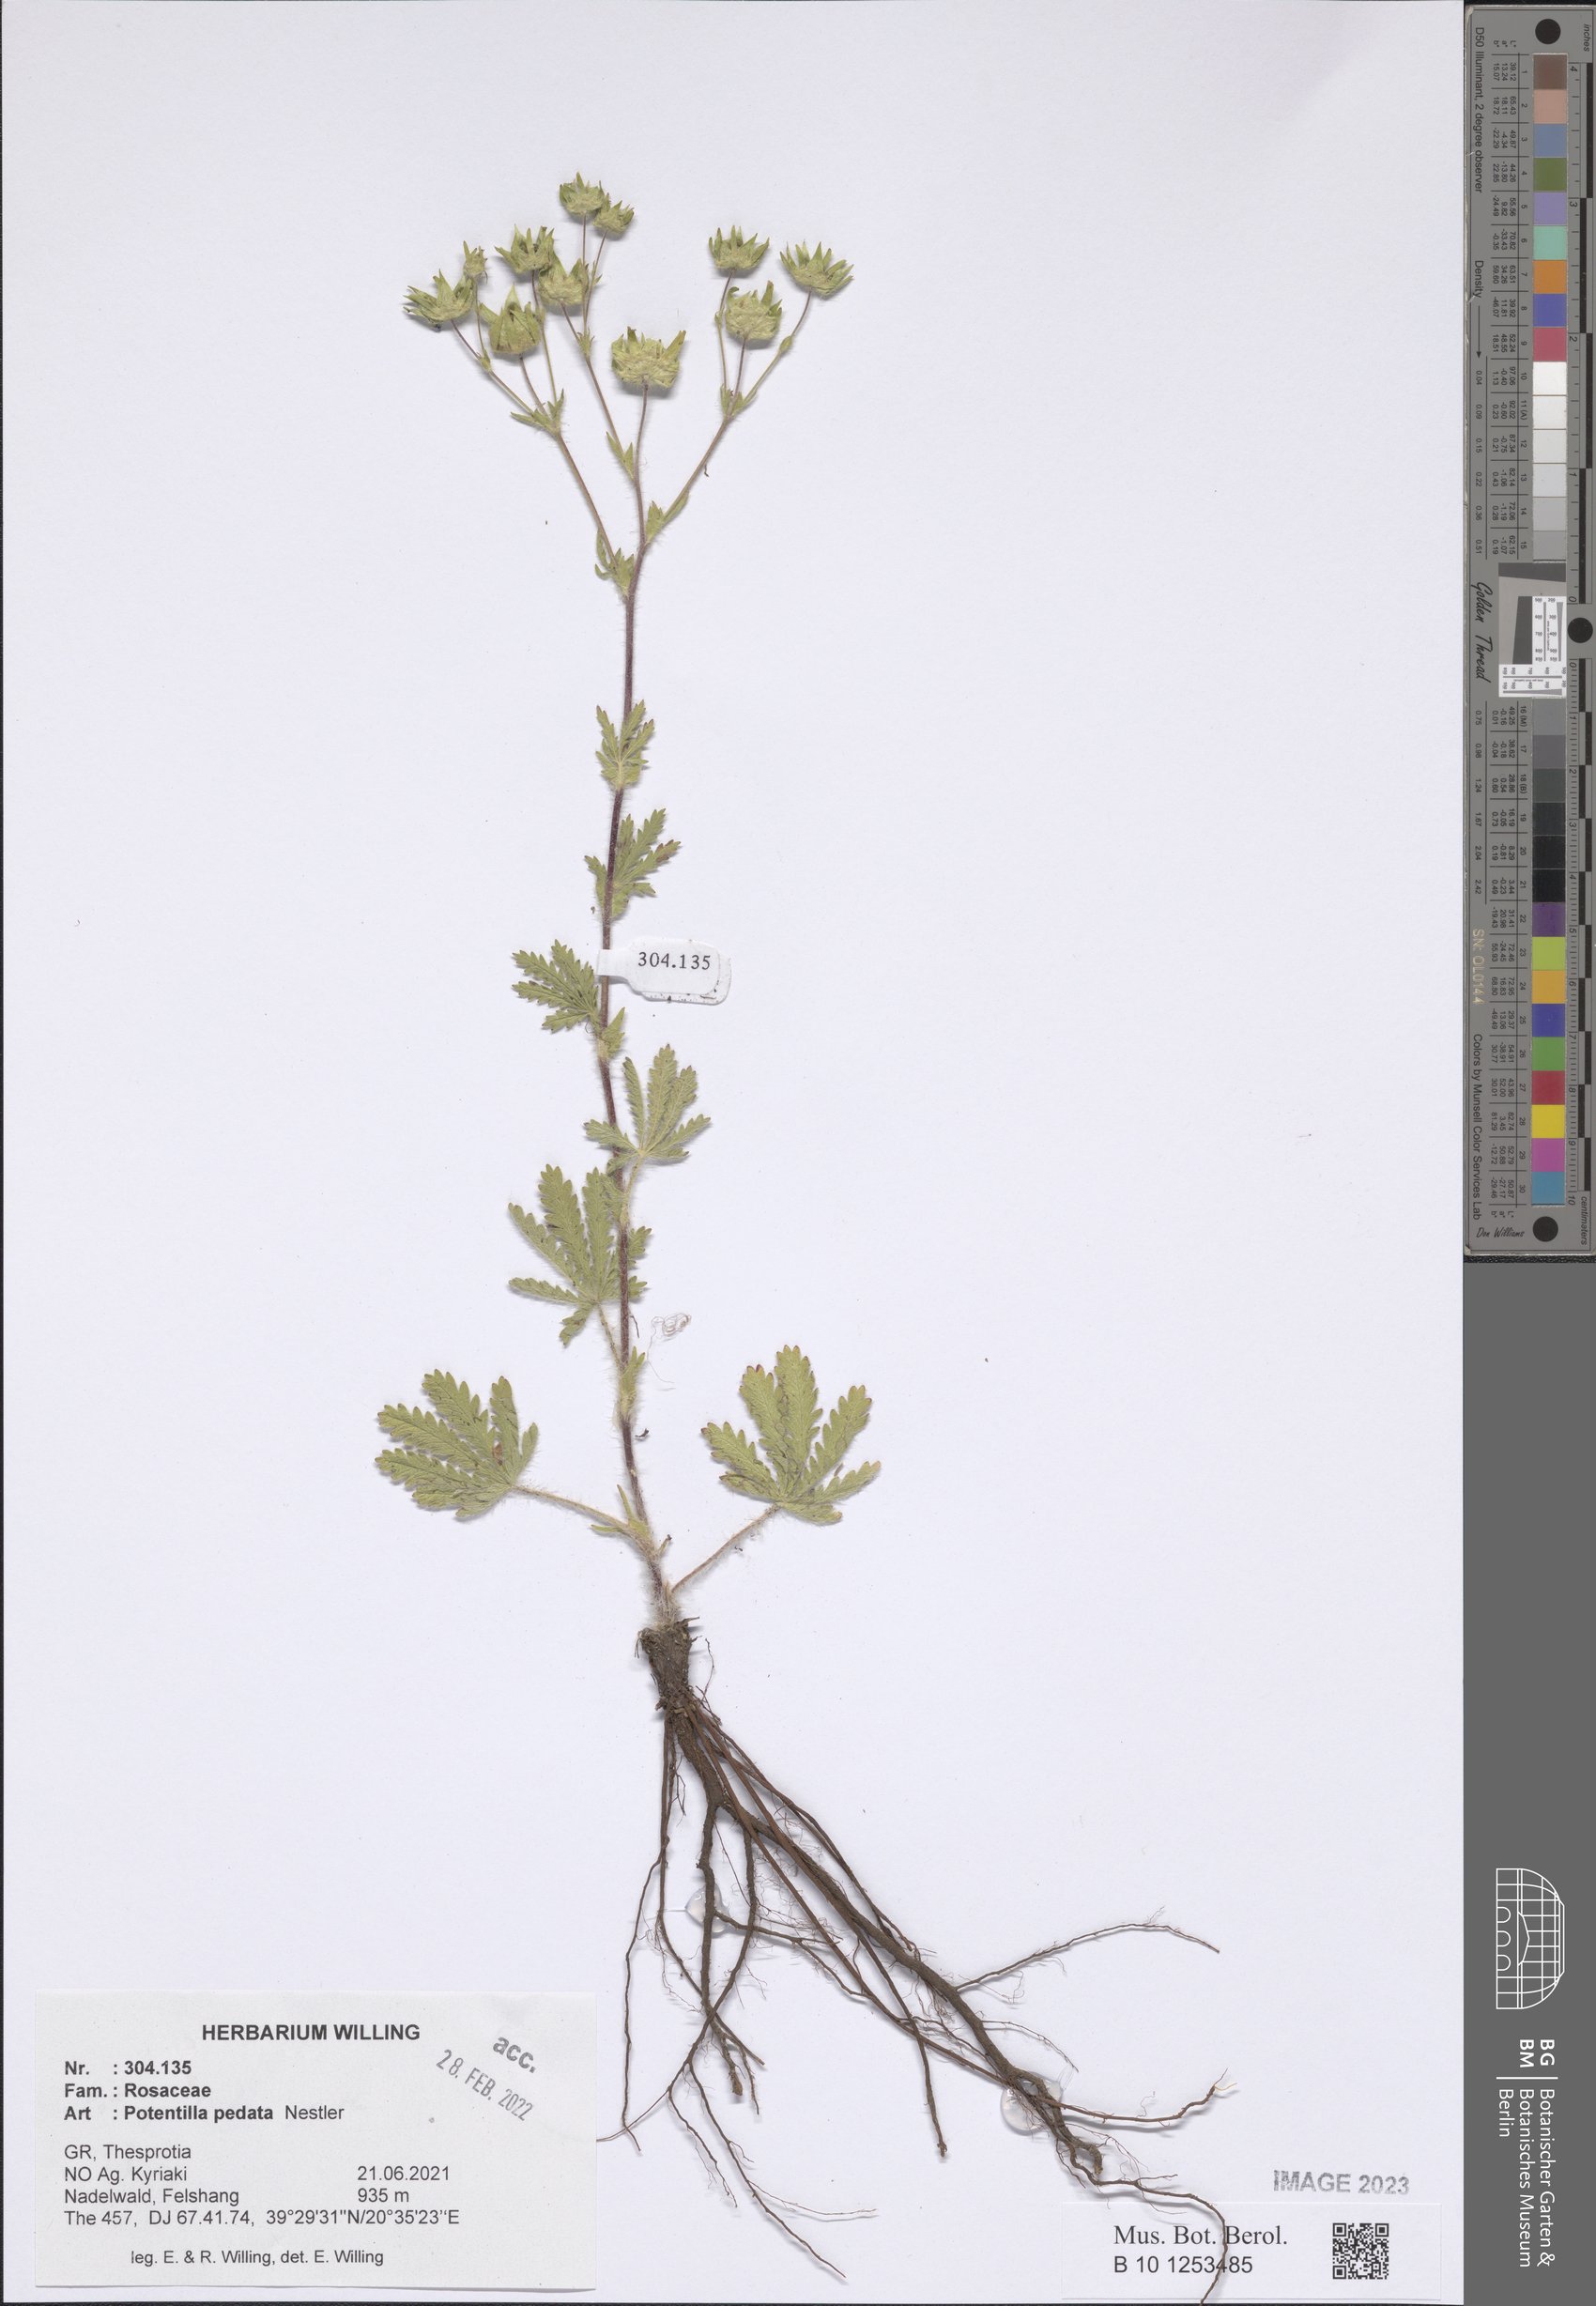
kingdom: Plantae
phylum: Tracheophyta
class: Magnoliopsida
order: Rosales
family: Rosaceae
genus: Potentilla
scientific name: Potentilla pedata
